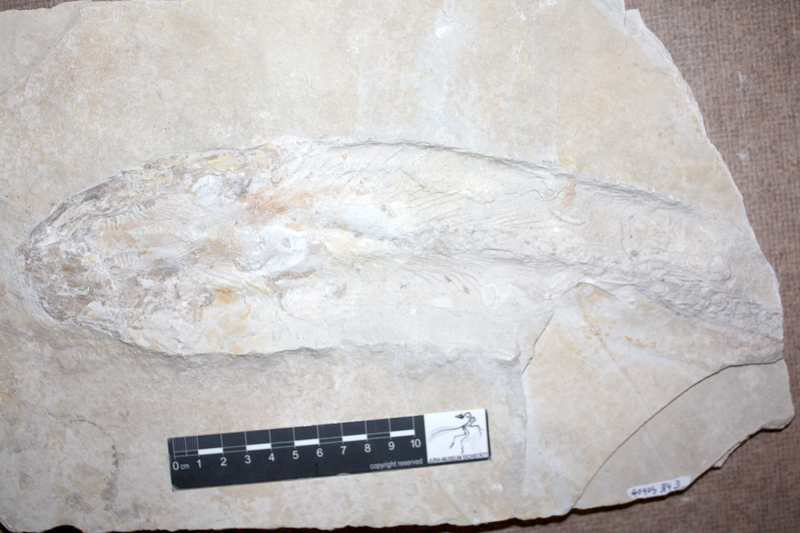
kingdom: Animalia
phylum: Chordata
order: Amiiformes
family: Caturidae
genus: Caturus
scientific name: Caturus
